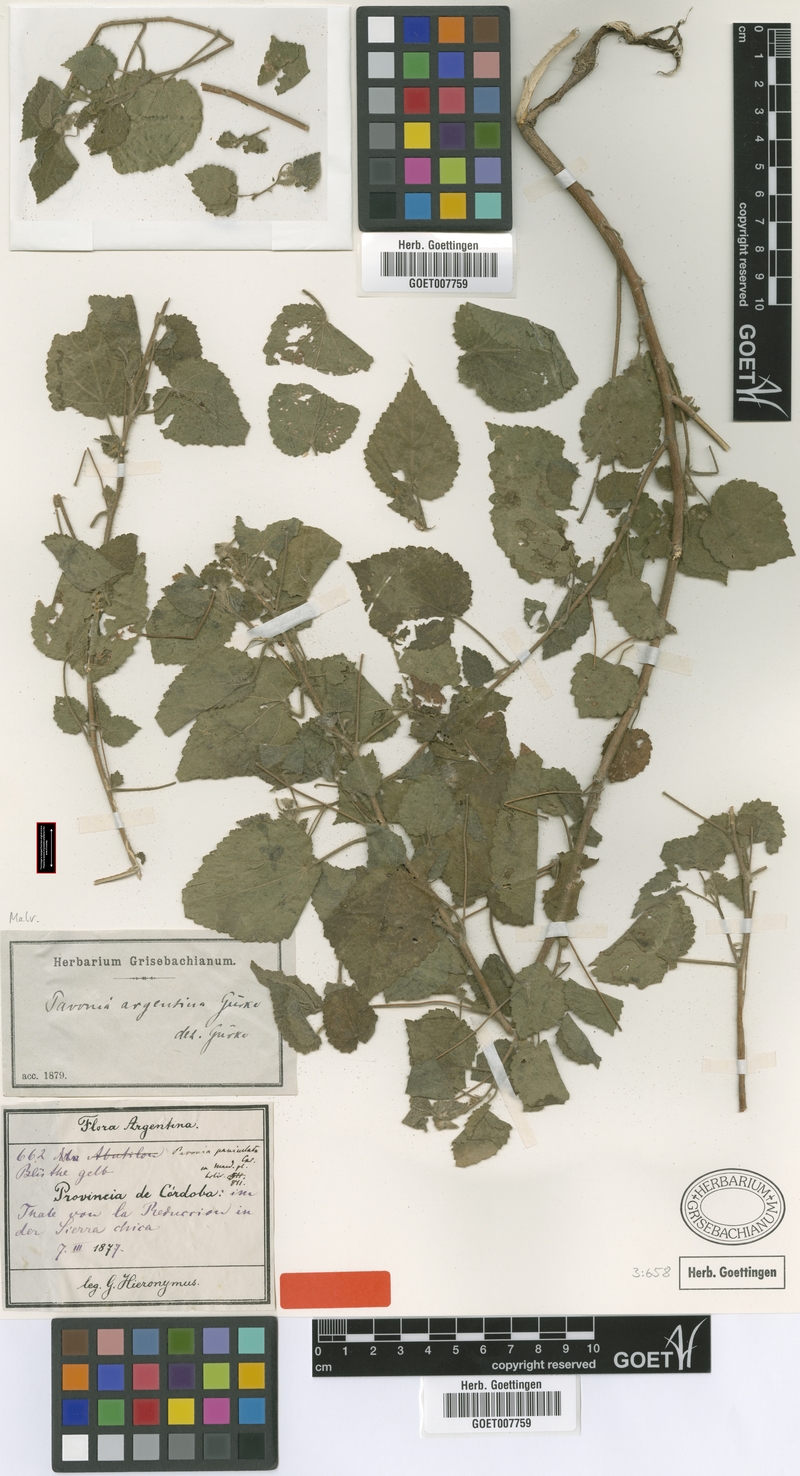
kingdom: Plantae
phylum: Tracheophyta
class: Magnoliopsida
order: Malvales
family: Malvaceae
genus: Pavonia
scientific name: Pavonia argentina
